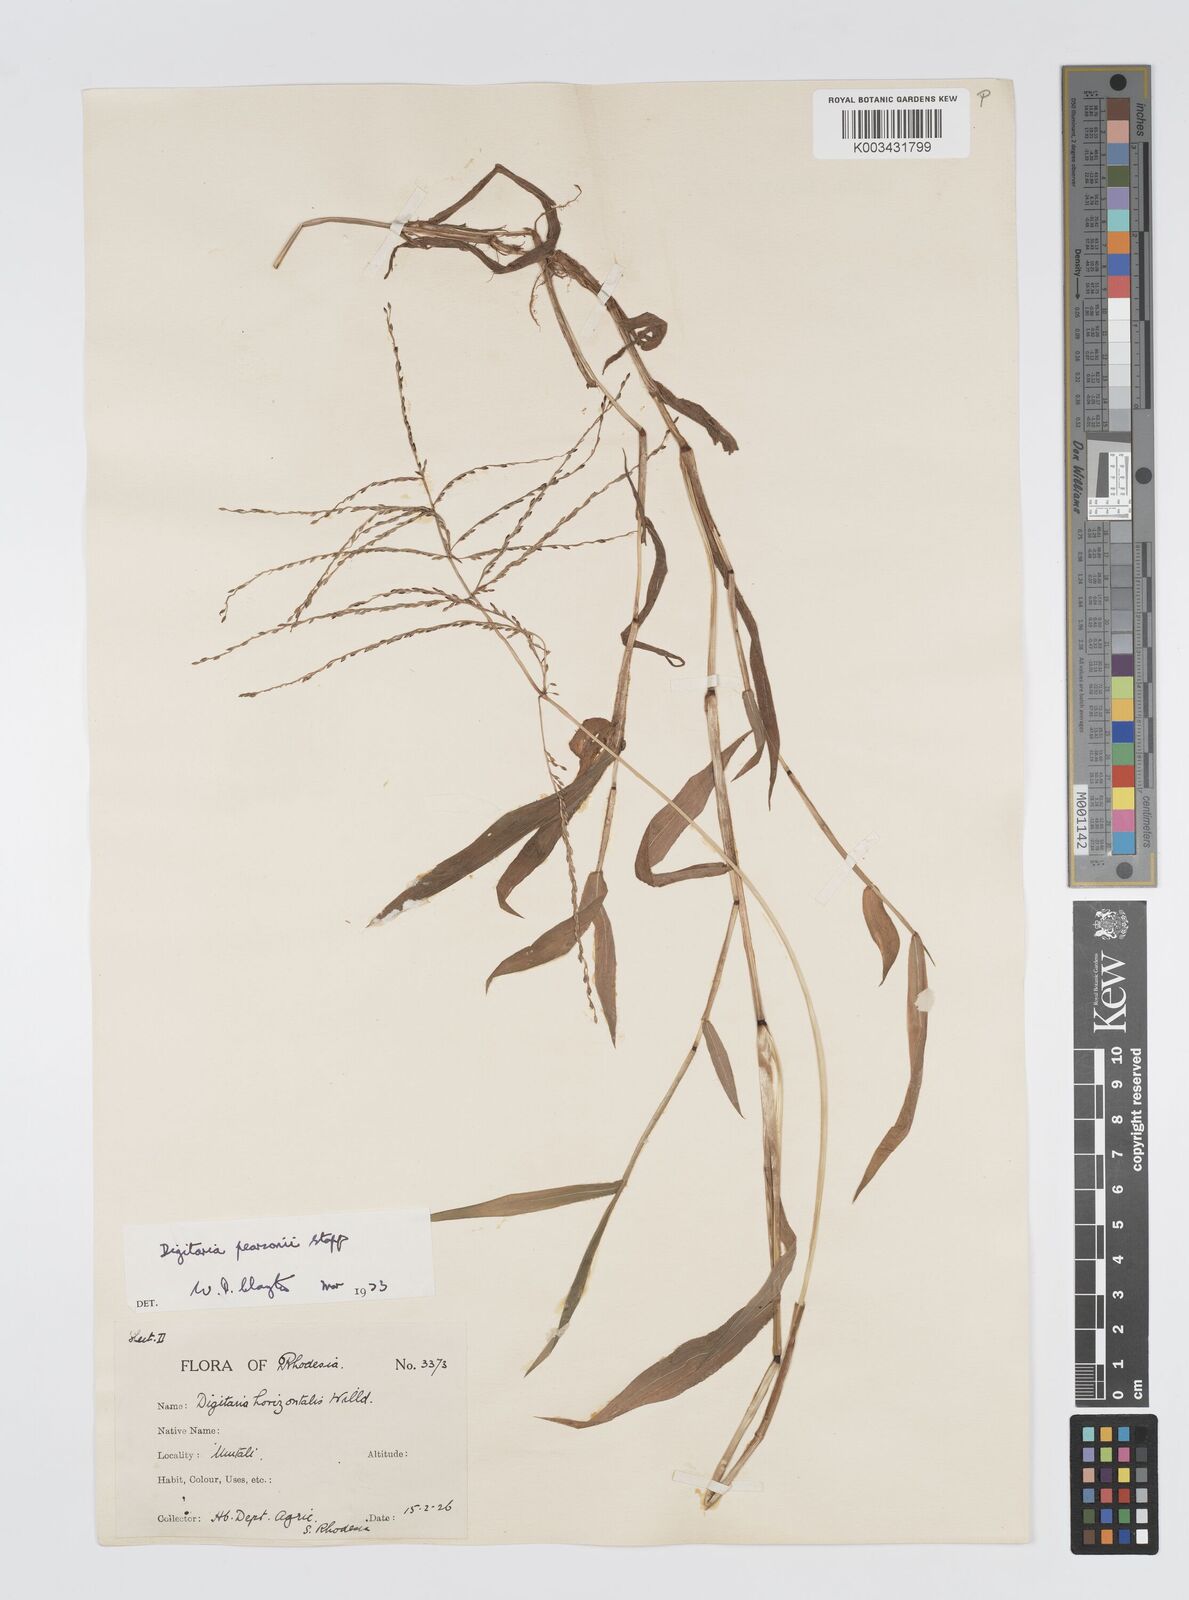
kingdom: Plantae
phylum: Tracheophyta
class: Liliopsida
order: Poales
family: Poaceae
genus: Digitaria
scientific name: Digitaria pearsonii
